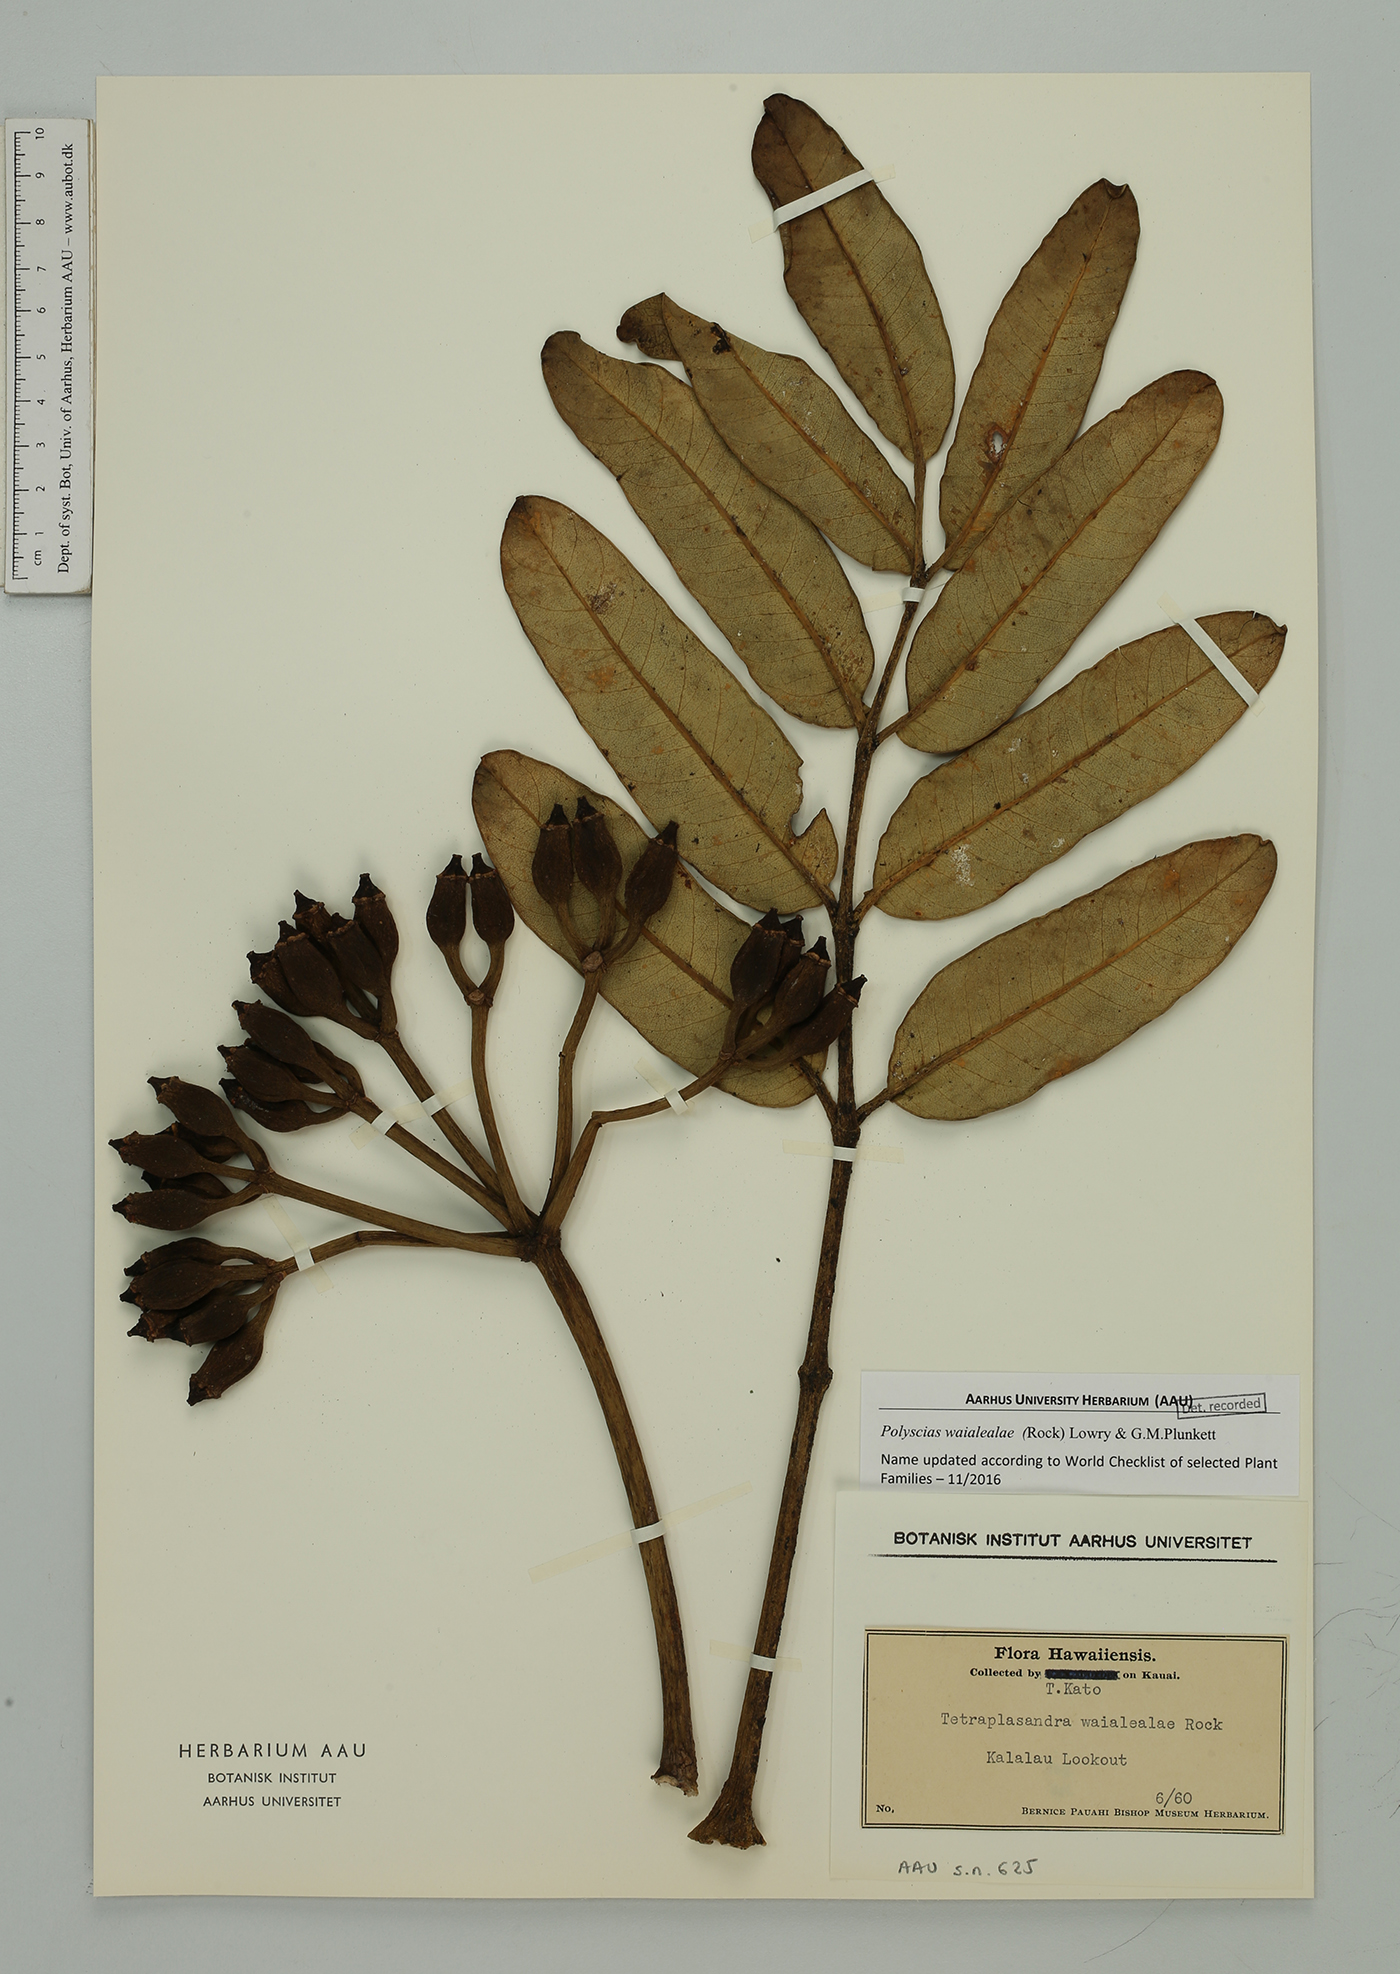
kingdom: Plantae
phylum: Tracheophyta
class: Magnoliopsida
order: Apiales
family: Araliaceae
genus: Polyscias
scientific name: Polyscias waialealae
